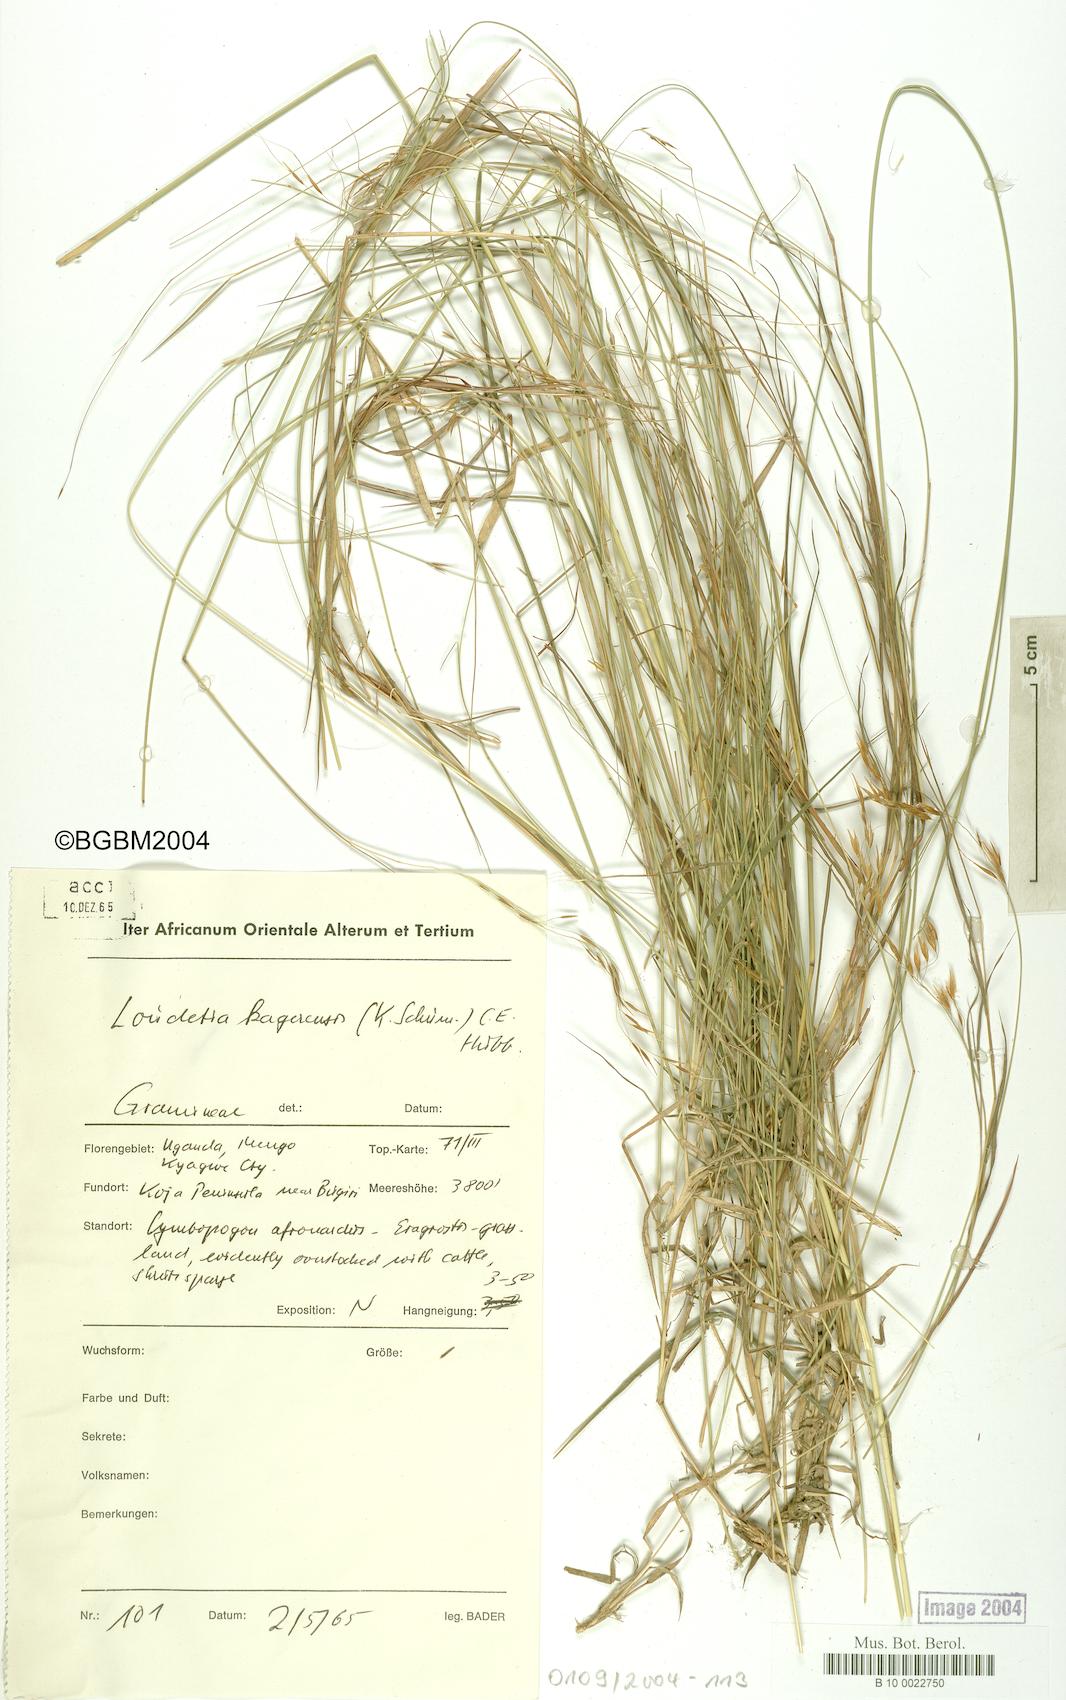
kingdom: Plantae
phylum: Tracheophyta
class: Liliopsida
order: Poales
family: Poaceae
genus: Loudetia
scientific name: Loudetia kagerensis
